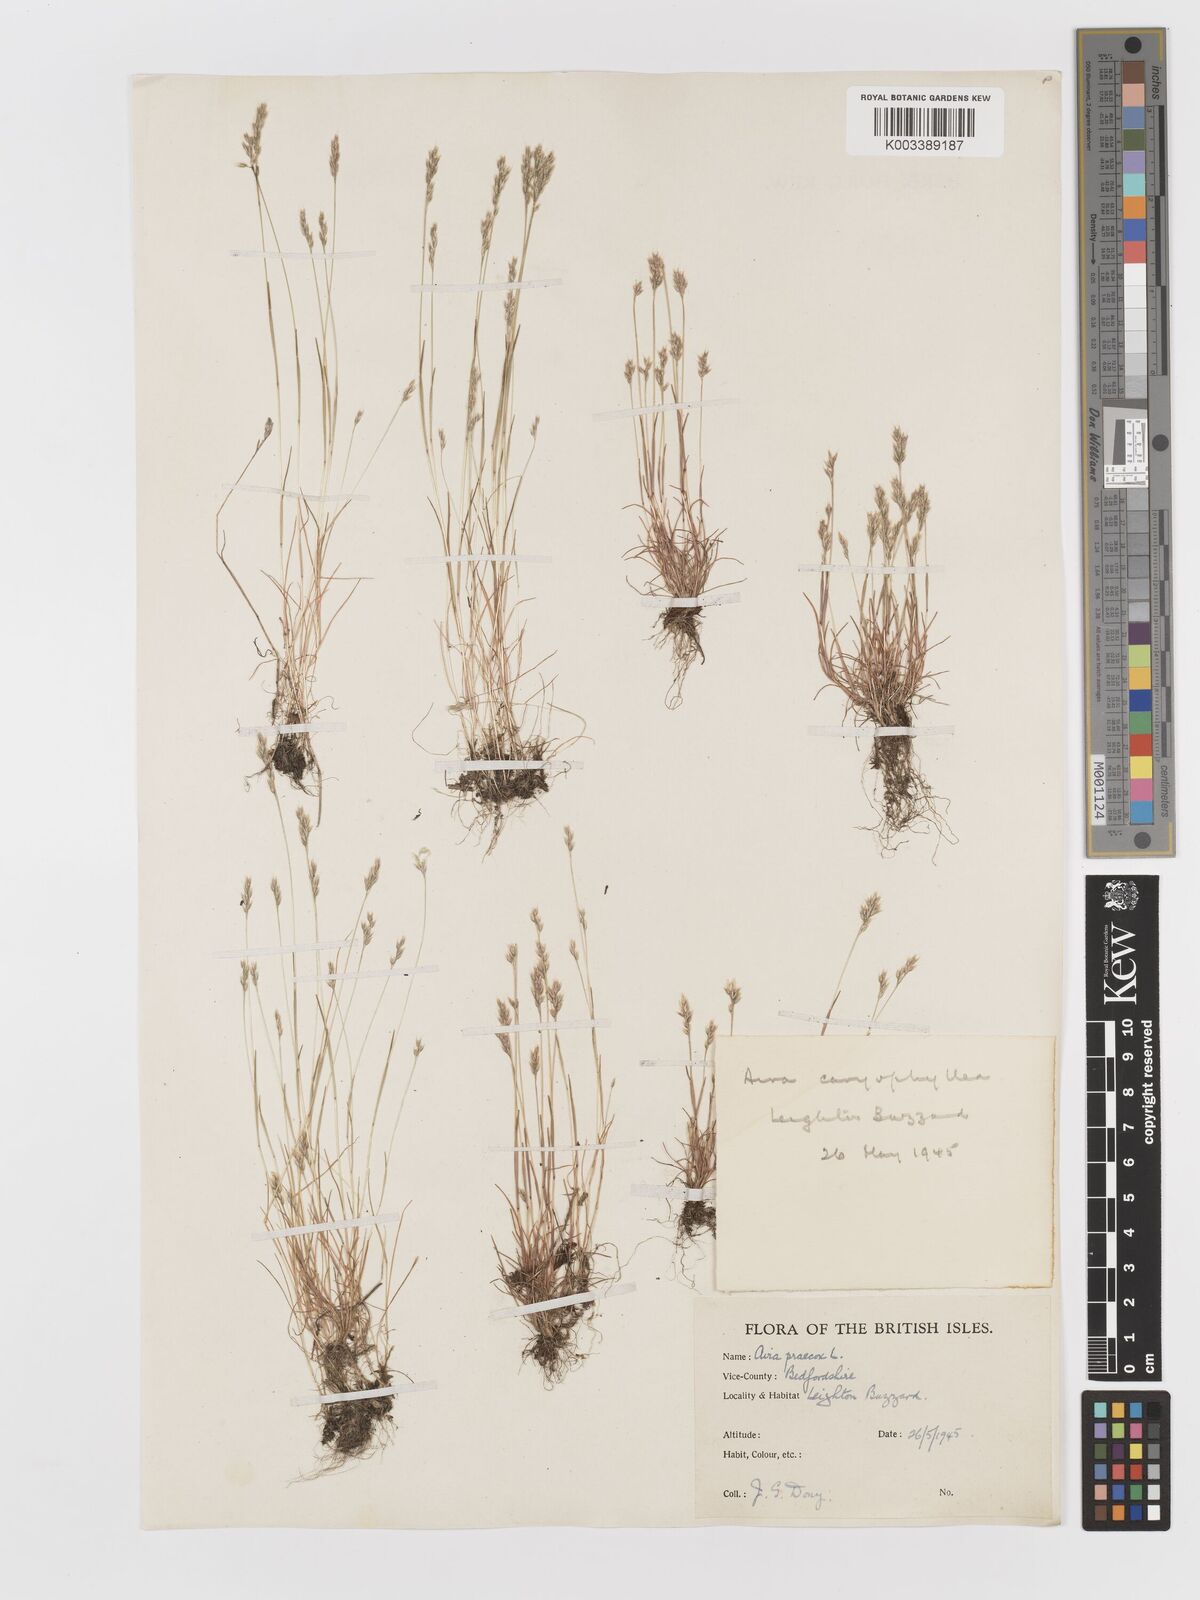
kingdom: Plantae
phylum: Tracheophyta
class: Liliopsida
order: Poales
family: Poaceae
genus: Aira
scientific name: Aira praecox
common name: Early hair-grass
